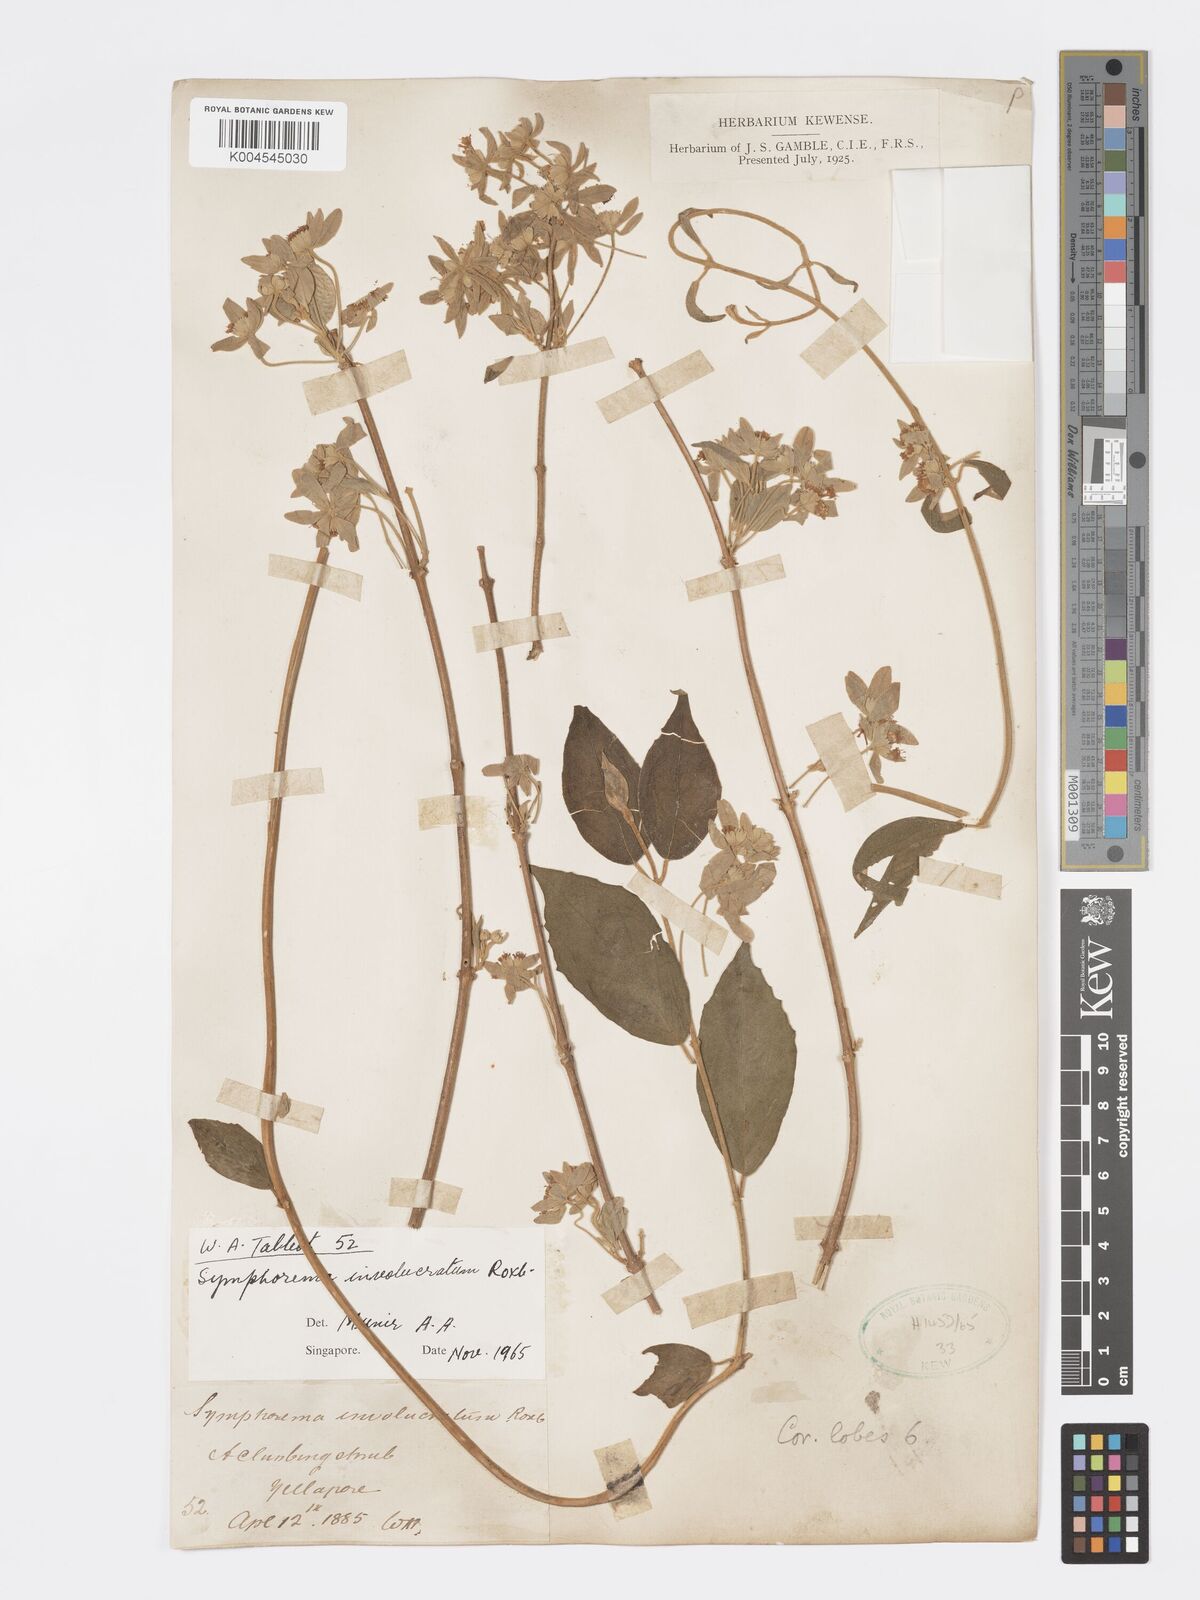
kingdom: Plantae
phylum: Tracheophyta
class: Magnoliopsida
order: Lamiales
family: Lamiaceae
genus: Symphorema
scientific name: Symphorema involucratum
